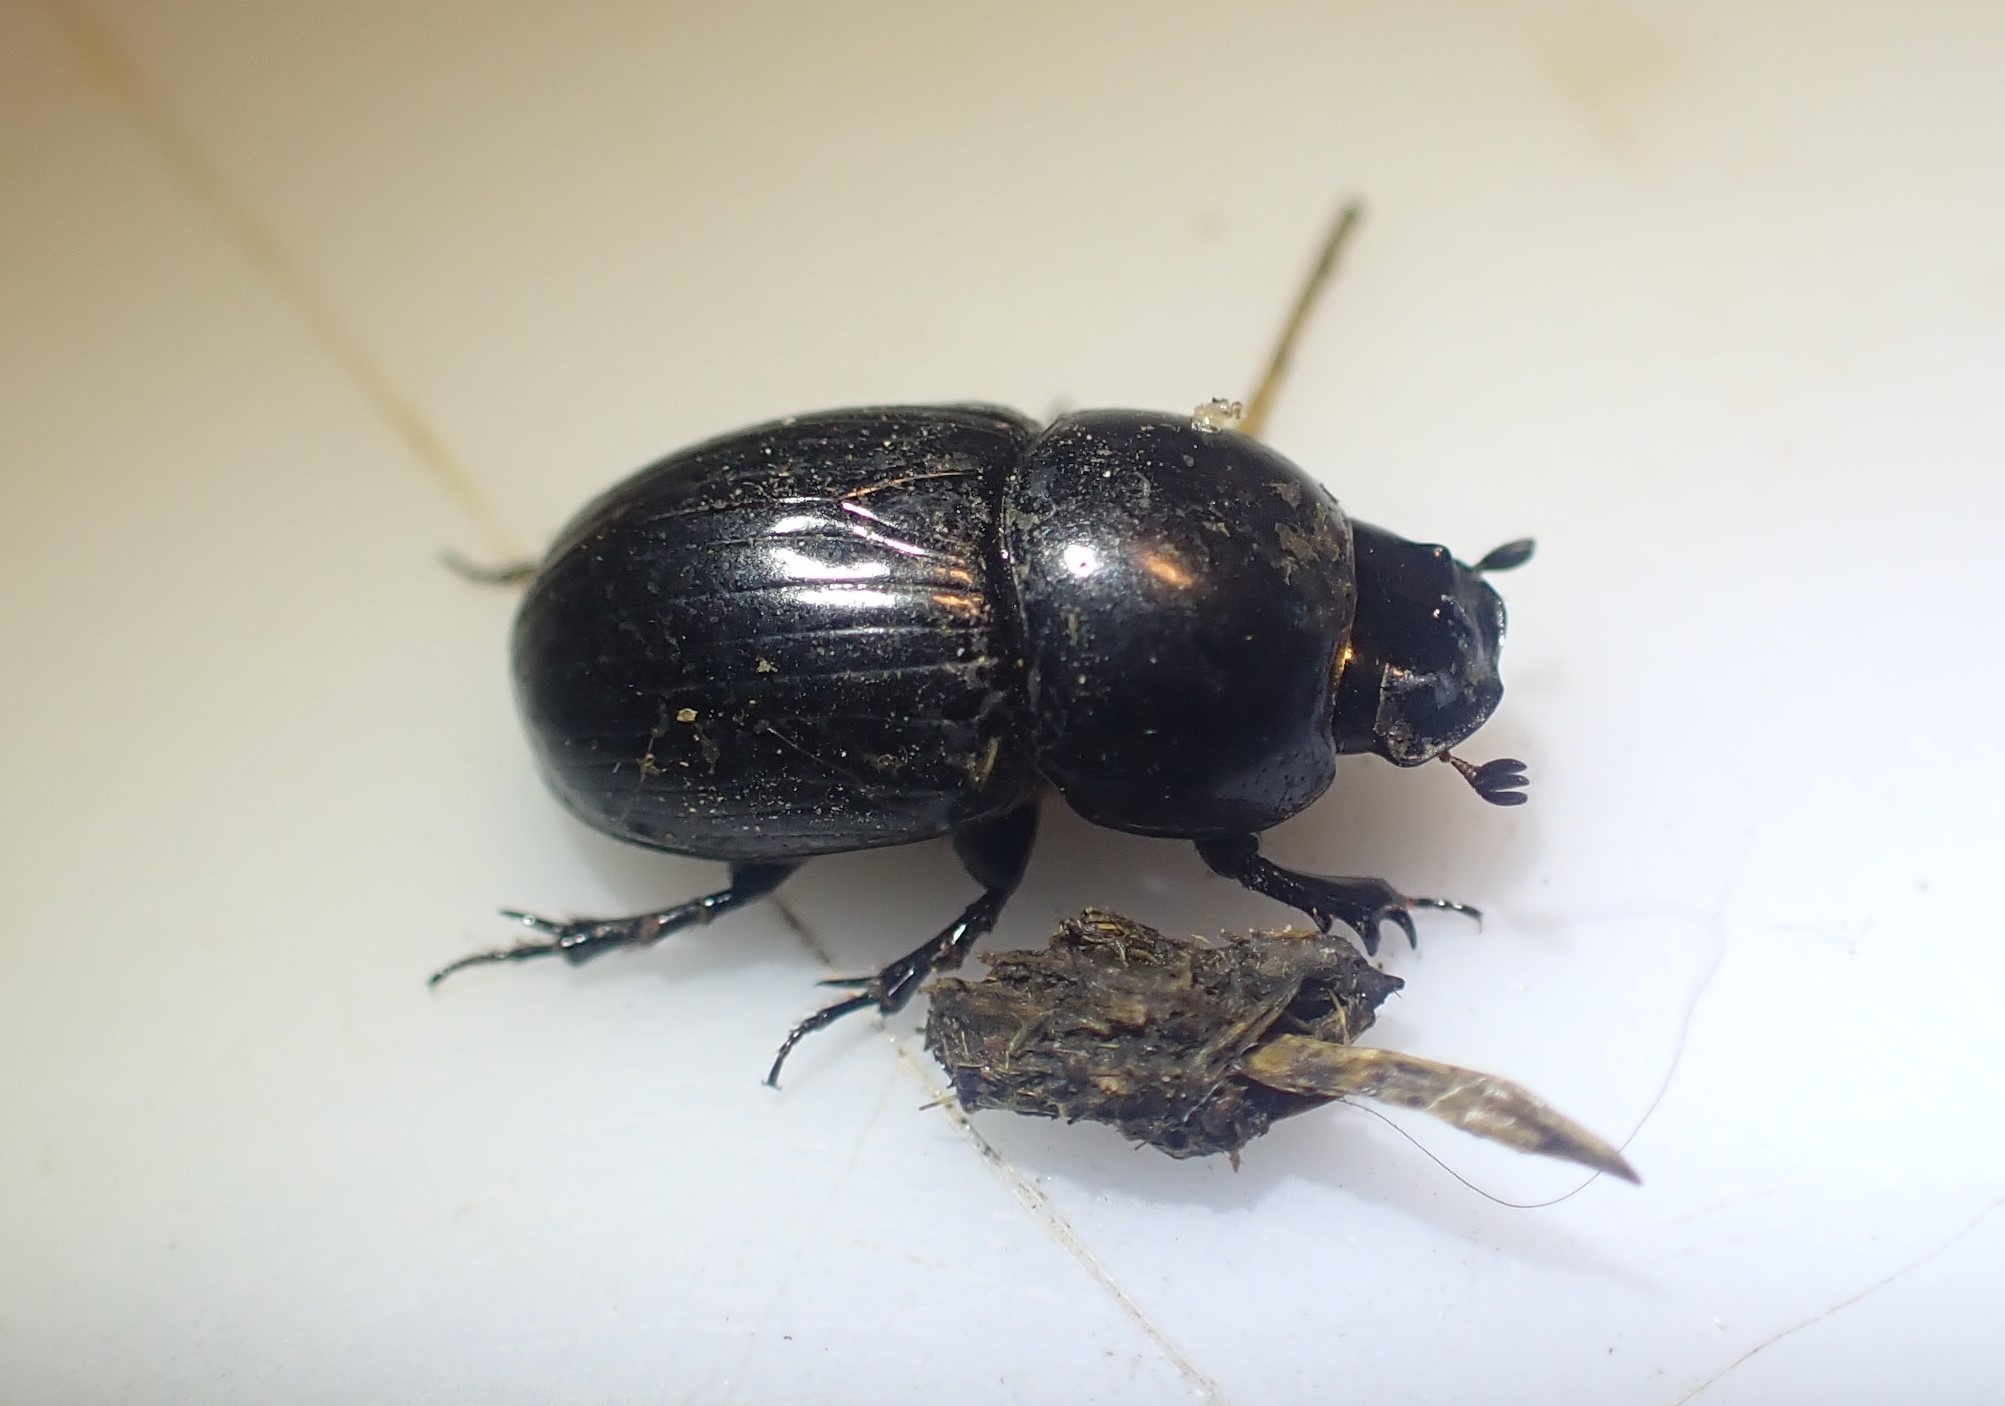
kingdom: Animalia
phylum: Arthropoda
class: Insecta
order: Coleoptera
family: Scarabaeidae
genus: Teuchestes
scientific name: Teuchestes fossor
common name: Stor møgbille
